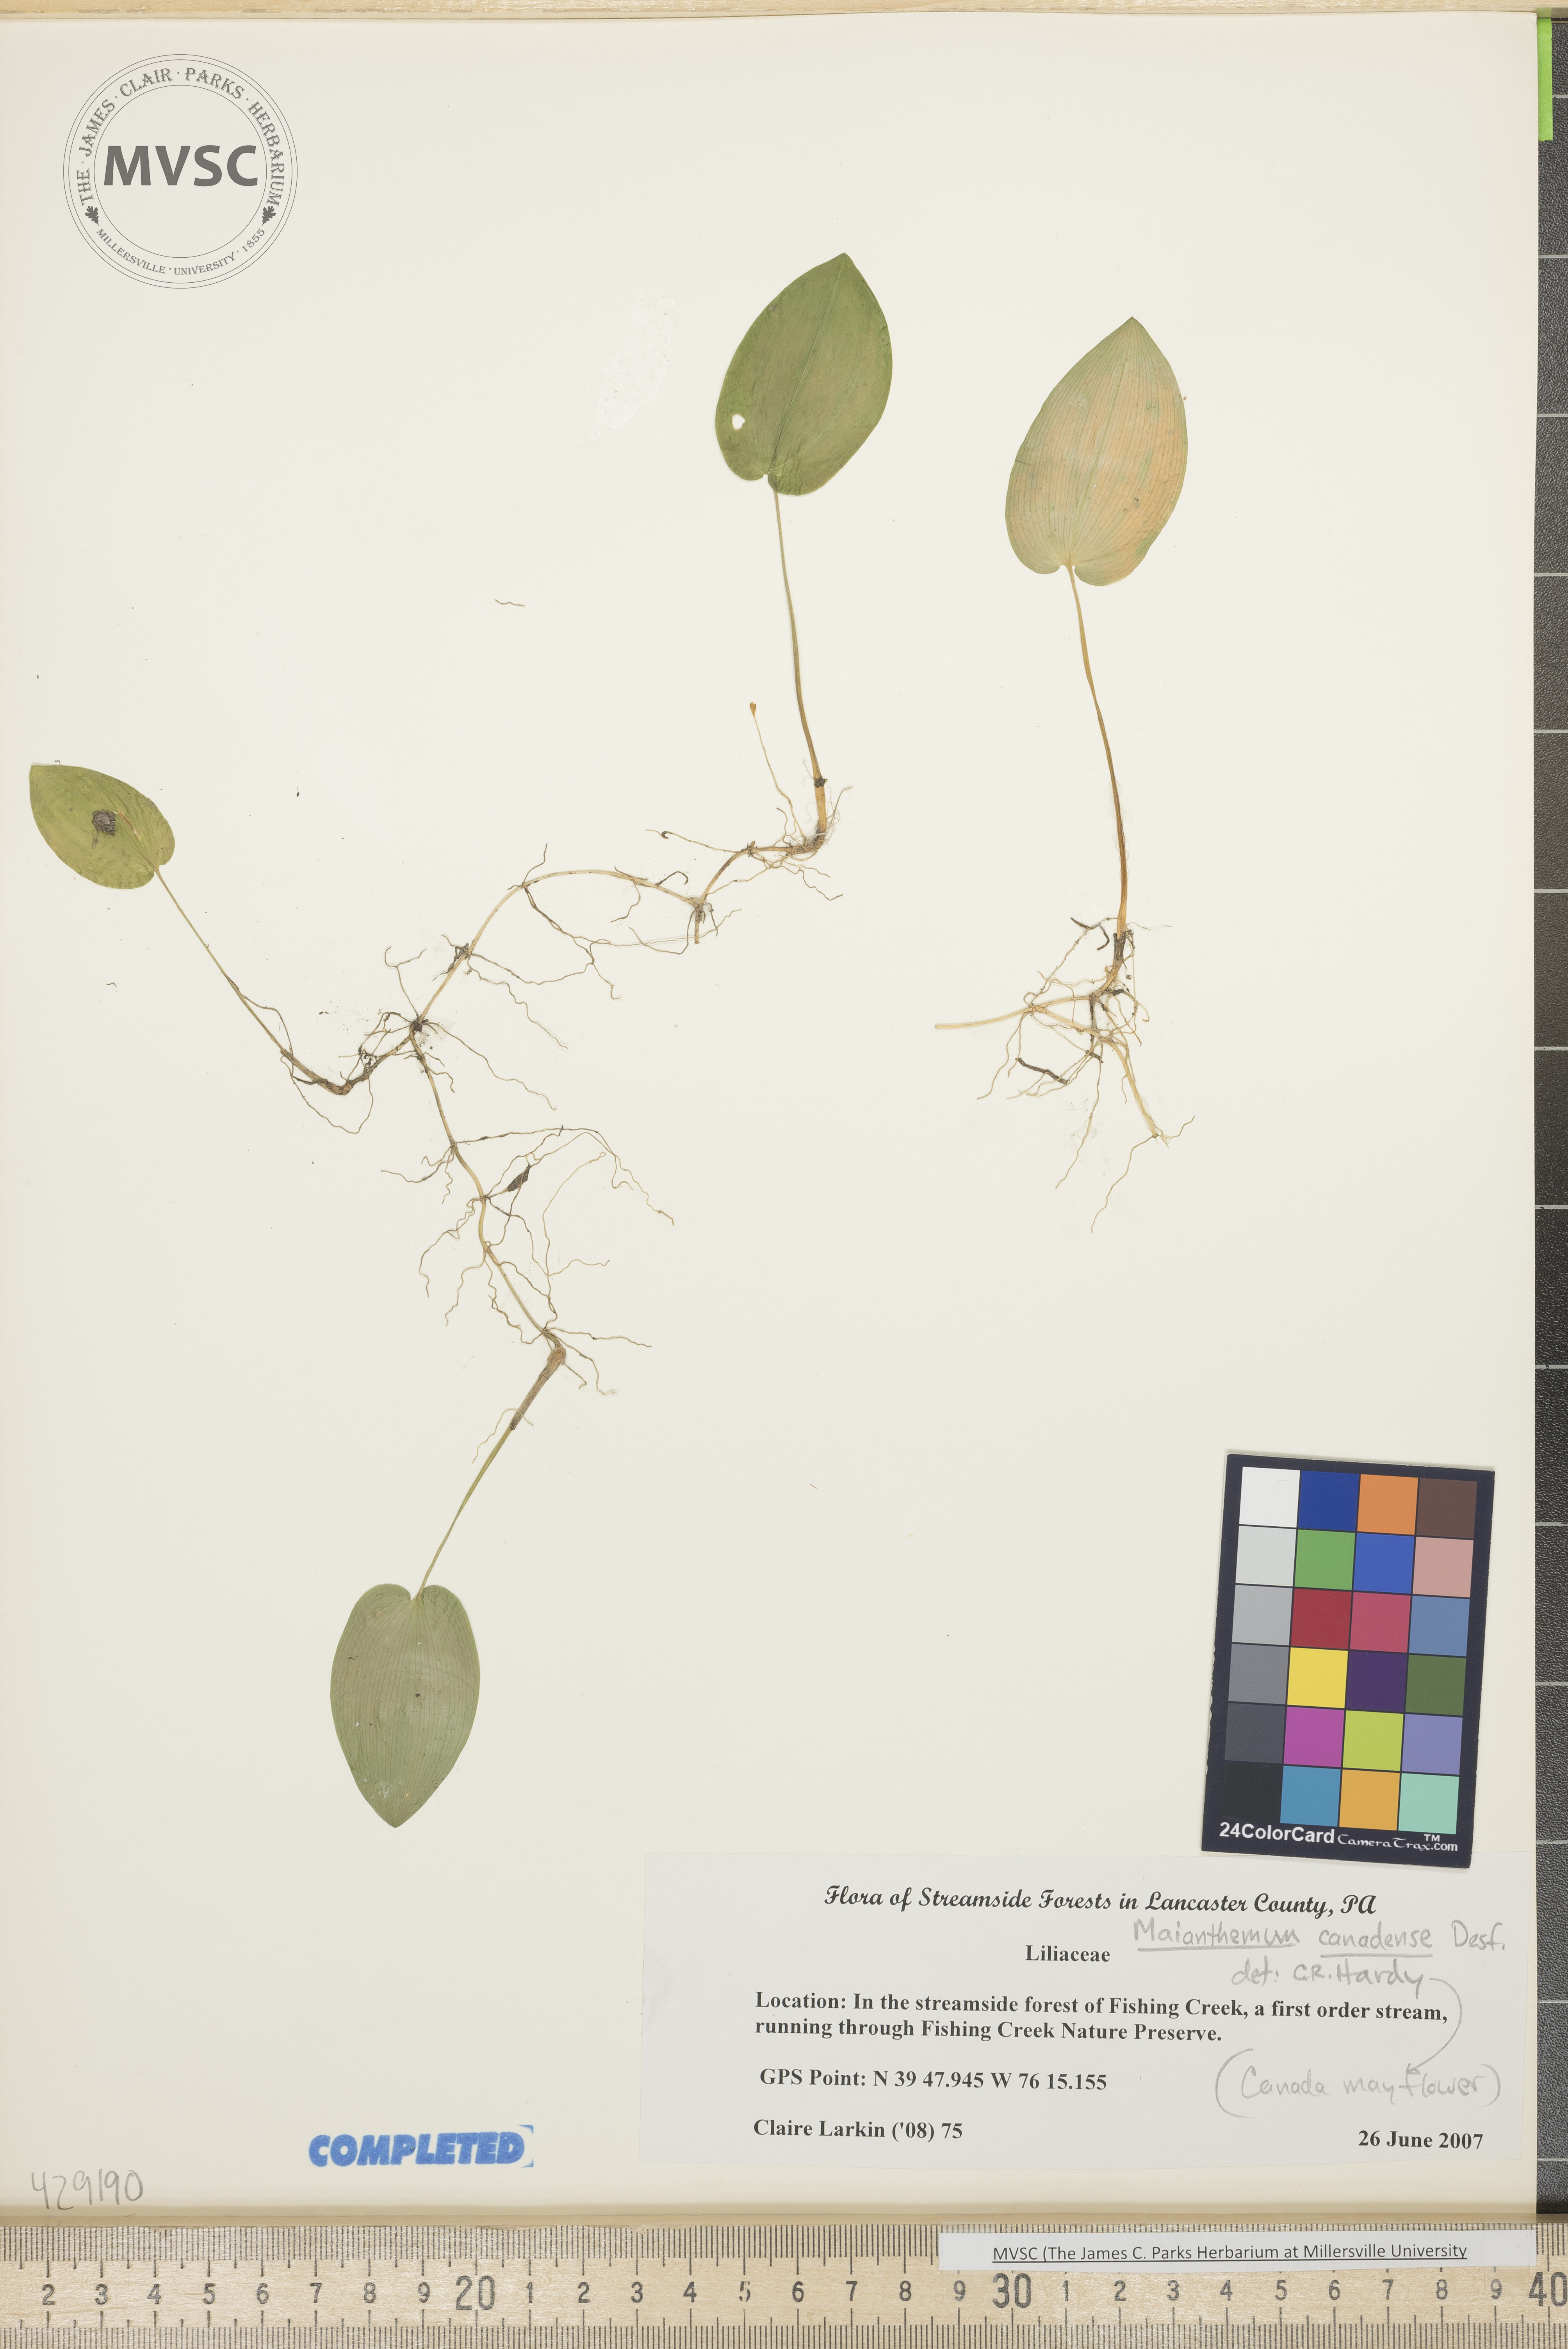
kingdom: Plantae
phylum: Tracheophyta
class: Liliopsida
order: Asparagales
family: Asparagaceae
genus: Maianthemum
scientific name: Maianthemum canadense
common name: Canada mayflower
